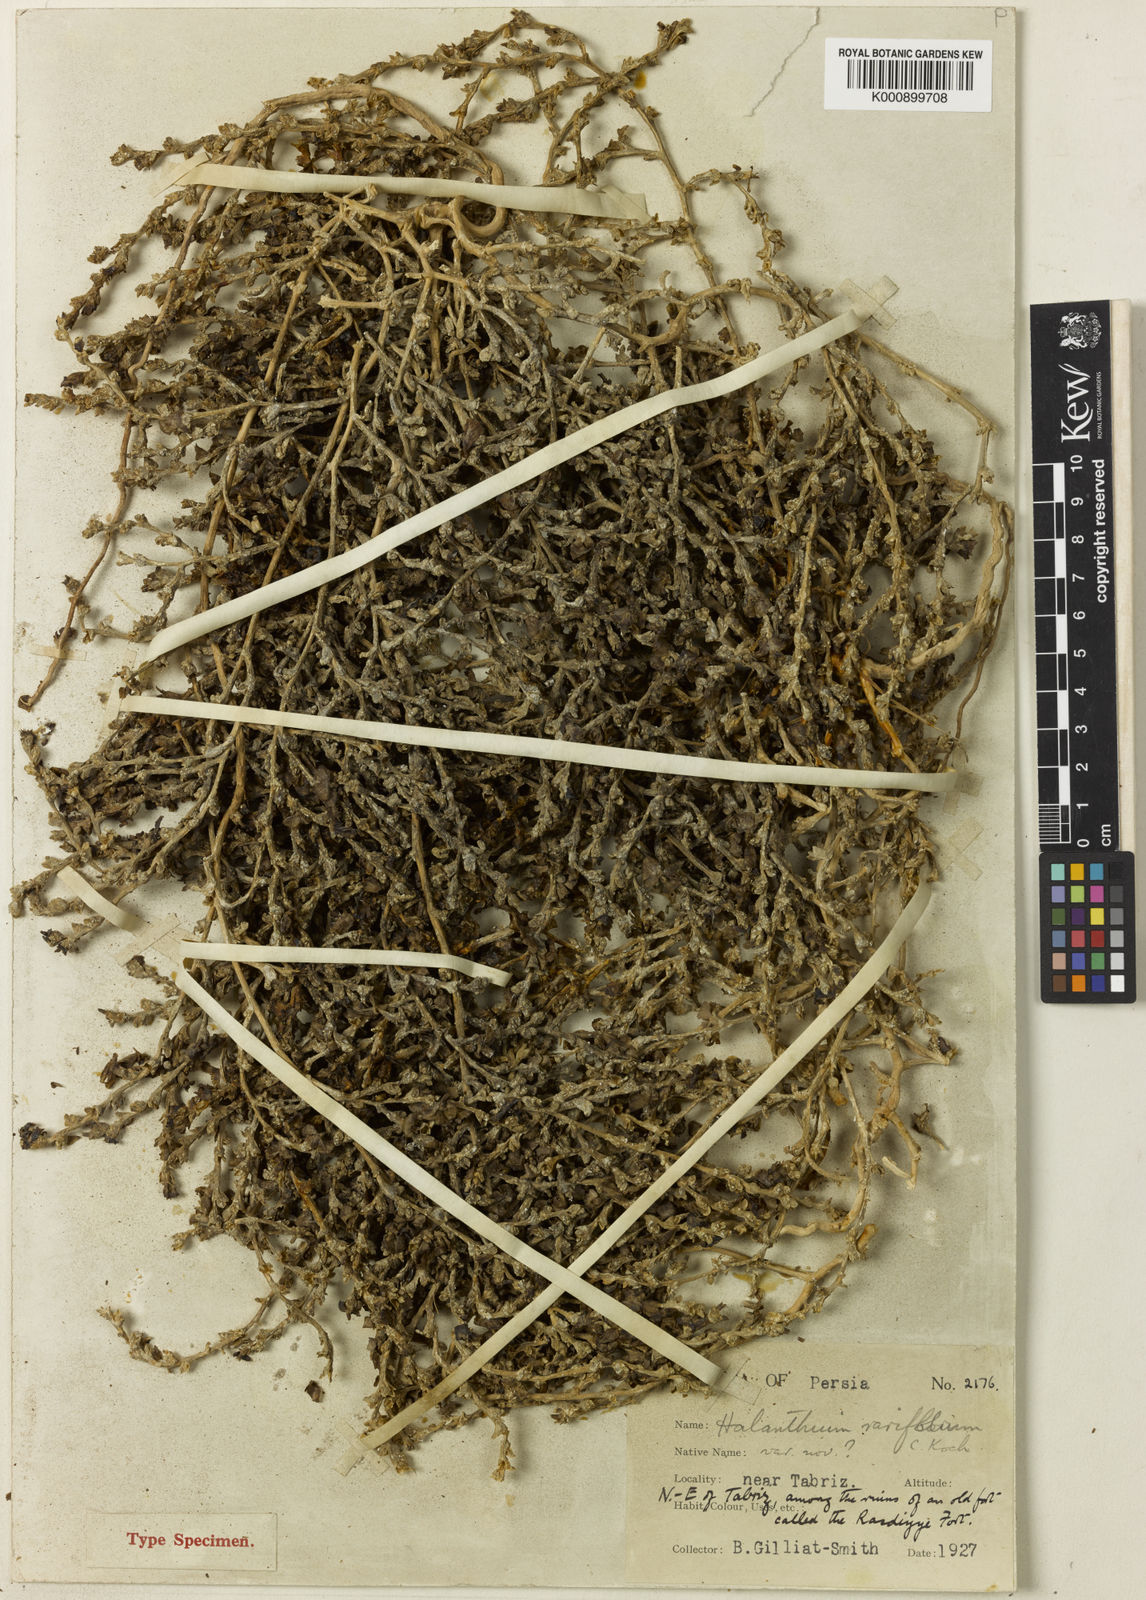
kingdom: Plantae
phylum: Tracheophyta
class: Magnoliopsida
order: Caryophyllales
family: Amaranthaceae
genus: Halimocnemis
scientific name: Halimocnemis rarifolia
